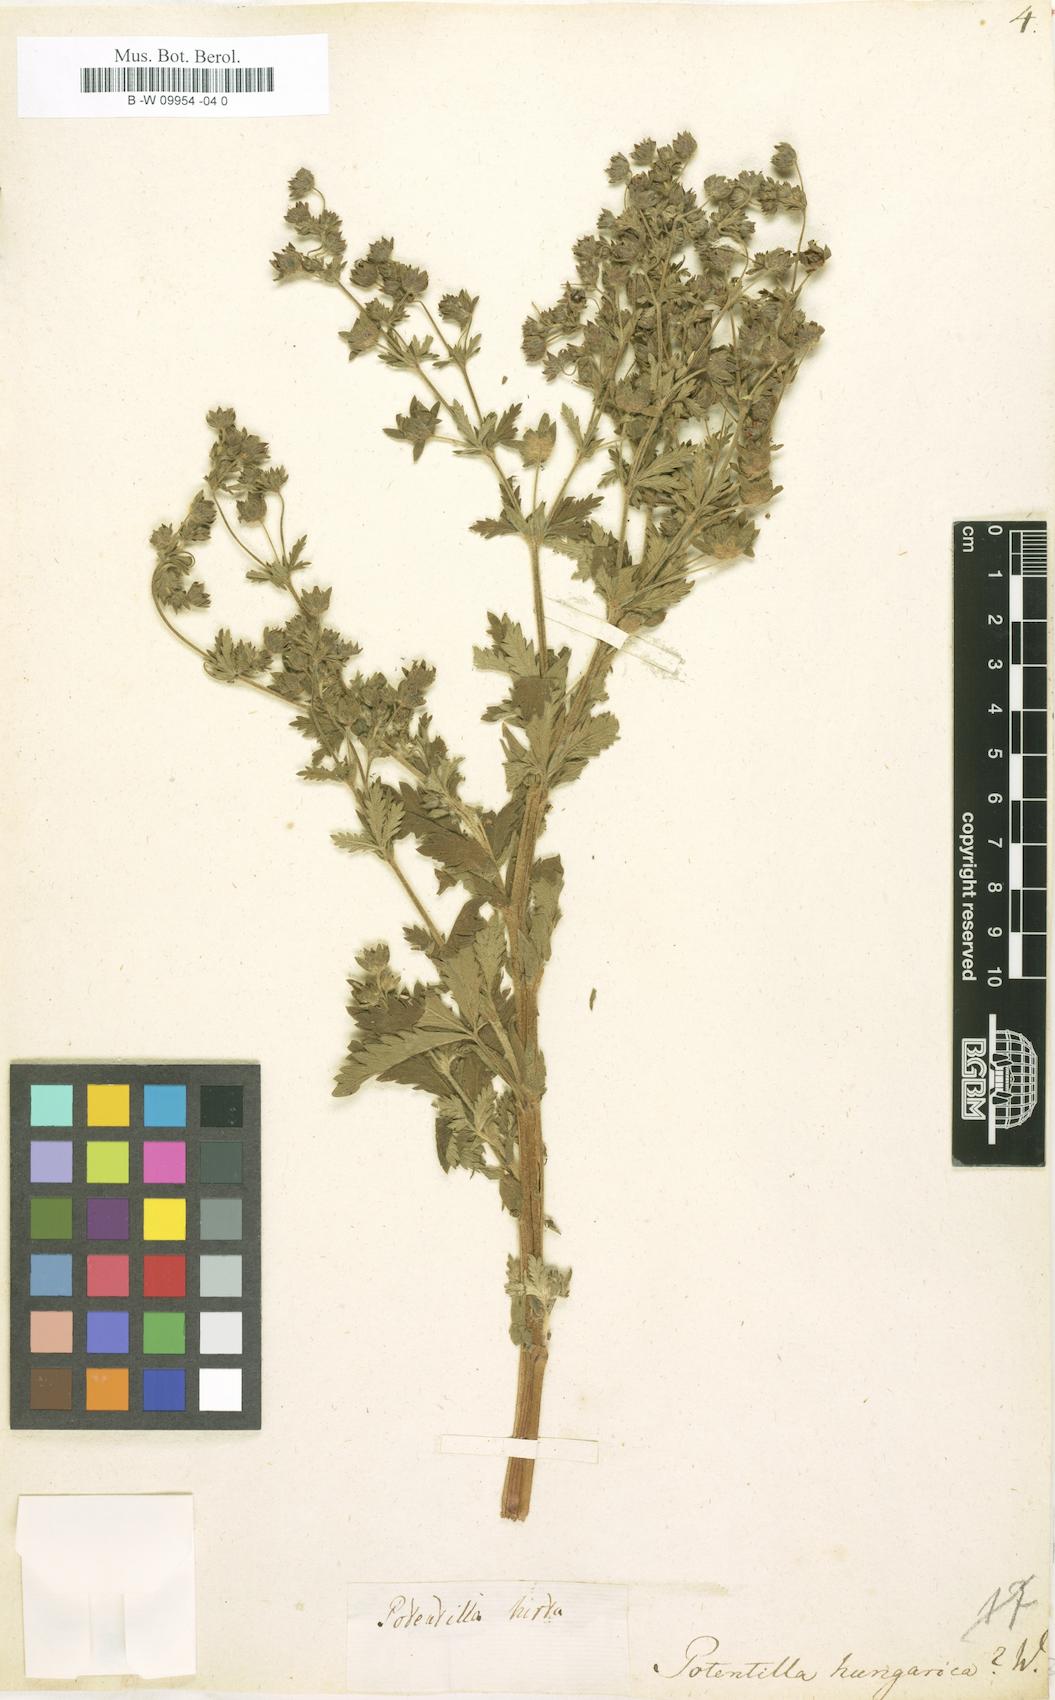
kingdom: Plantae
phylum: Tracheophyta
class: Magnoliopsida
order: Rosales
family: Rosaceae
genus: Potentilla
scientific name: Potentilla inclinata
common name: Grey cinquefoil
